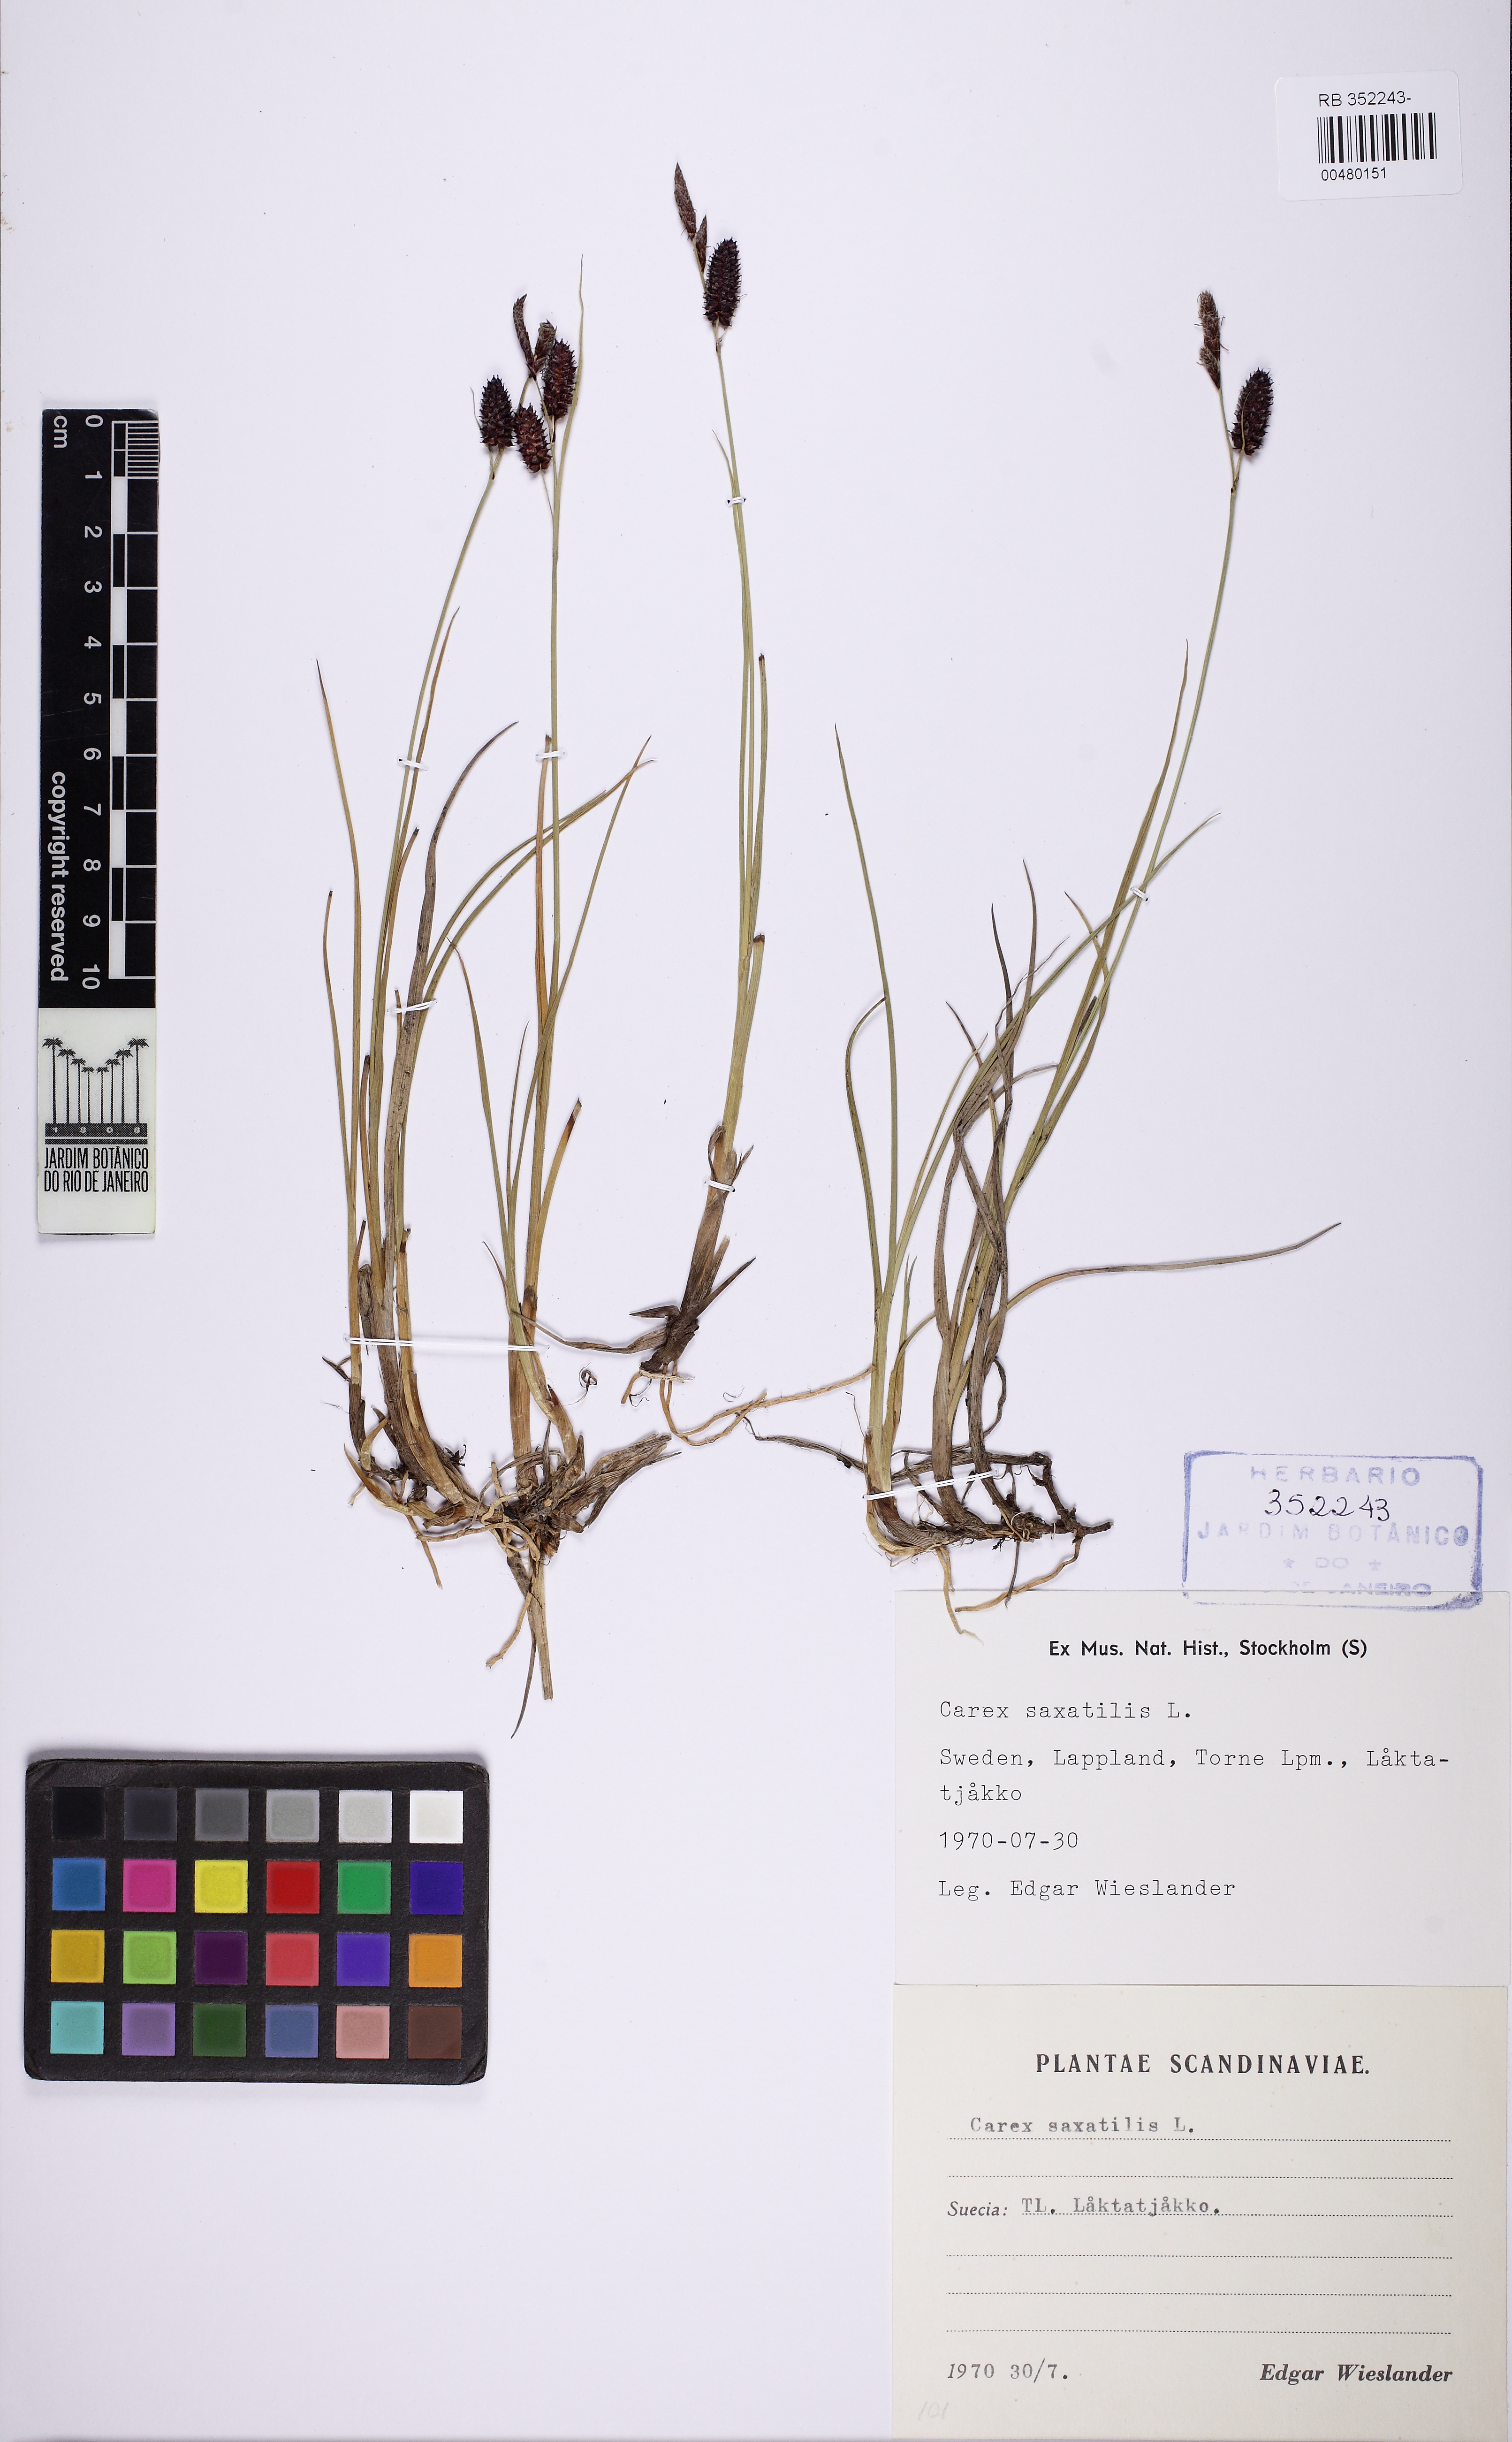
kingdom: Plantae
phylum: Tracheophyta
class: Liliopsida
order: Poales
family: Cyperaceae
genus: Carex
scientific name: Carex saxatilis
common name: Russet sedge
